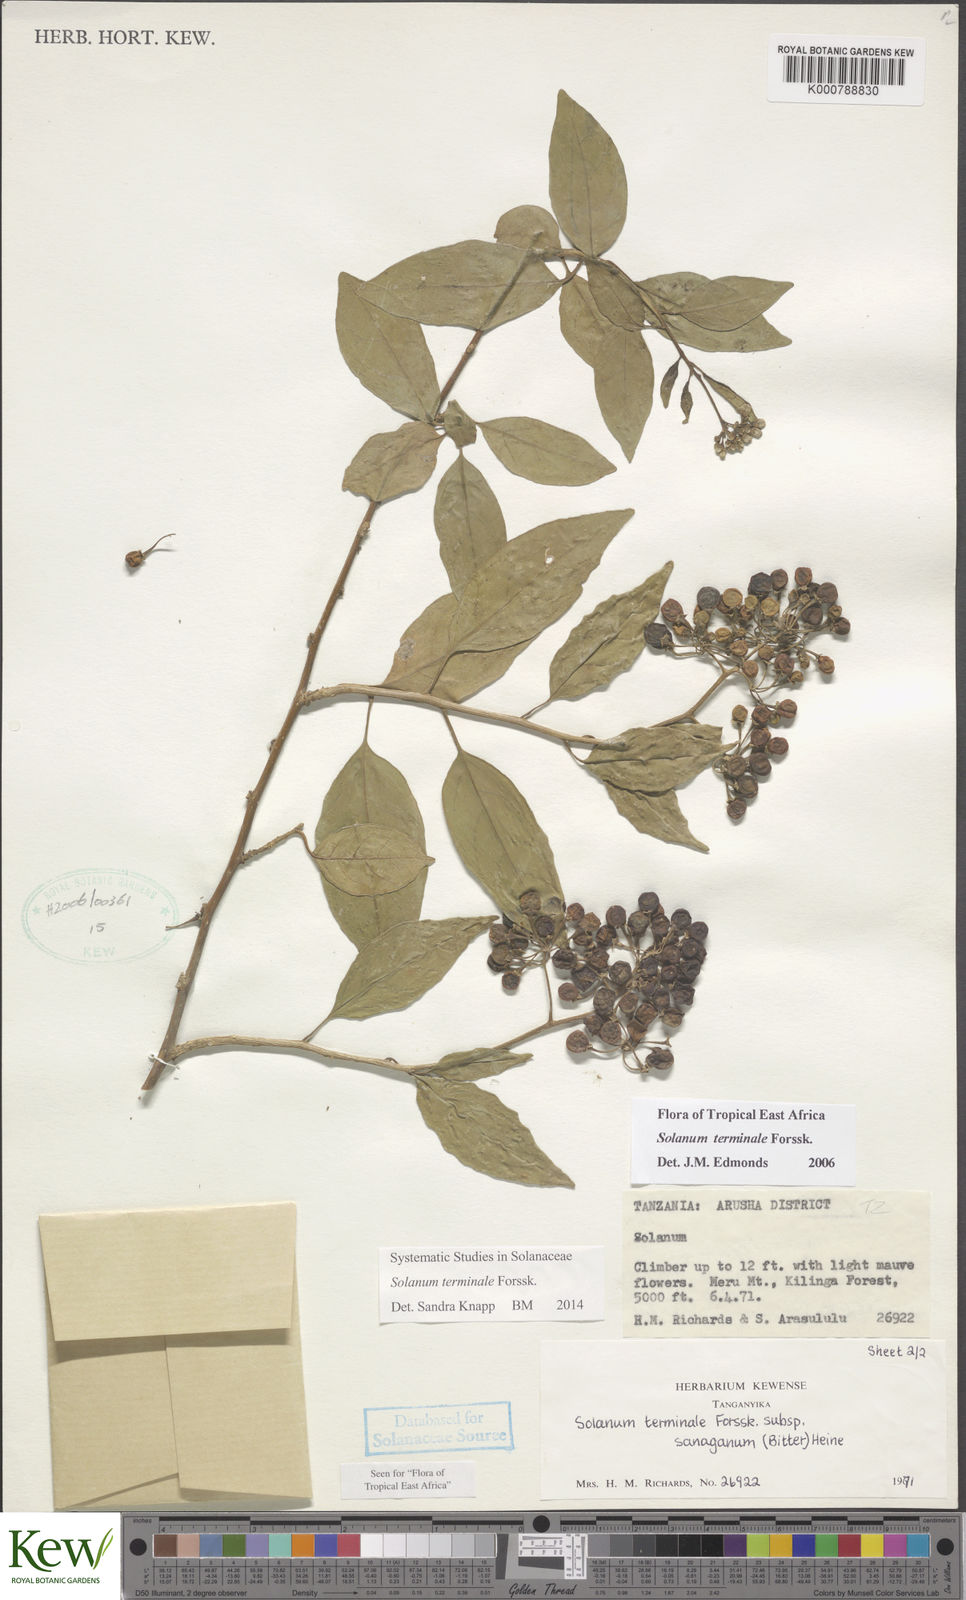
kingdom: Plantae
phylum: Tracheophyta
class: Magnoliopsida
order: Solanales
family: Solanaceae
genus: Solanum
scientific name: Solanum terminale
